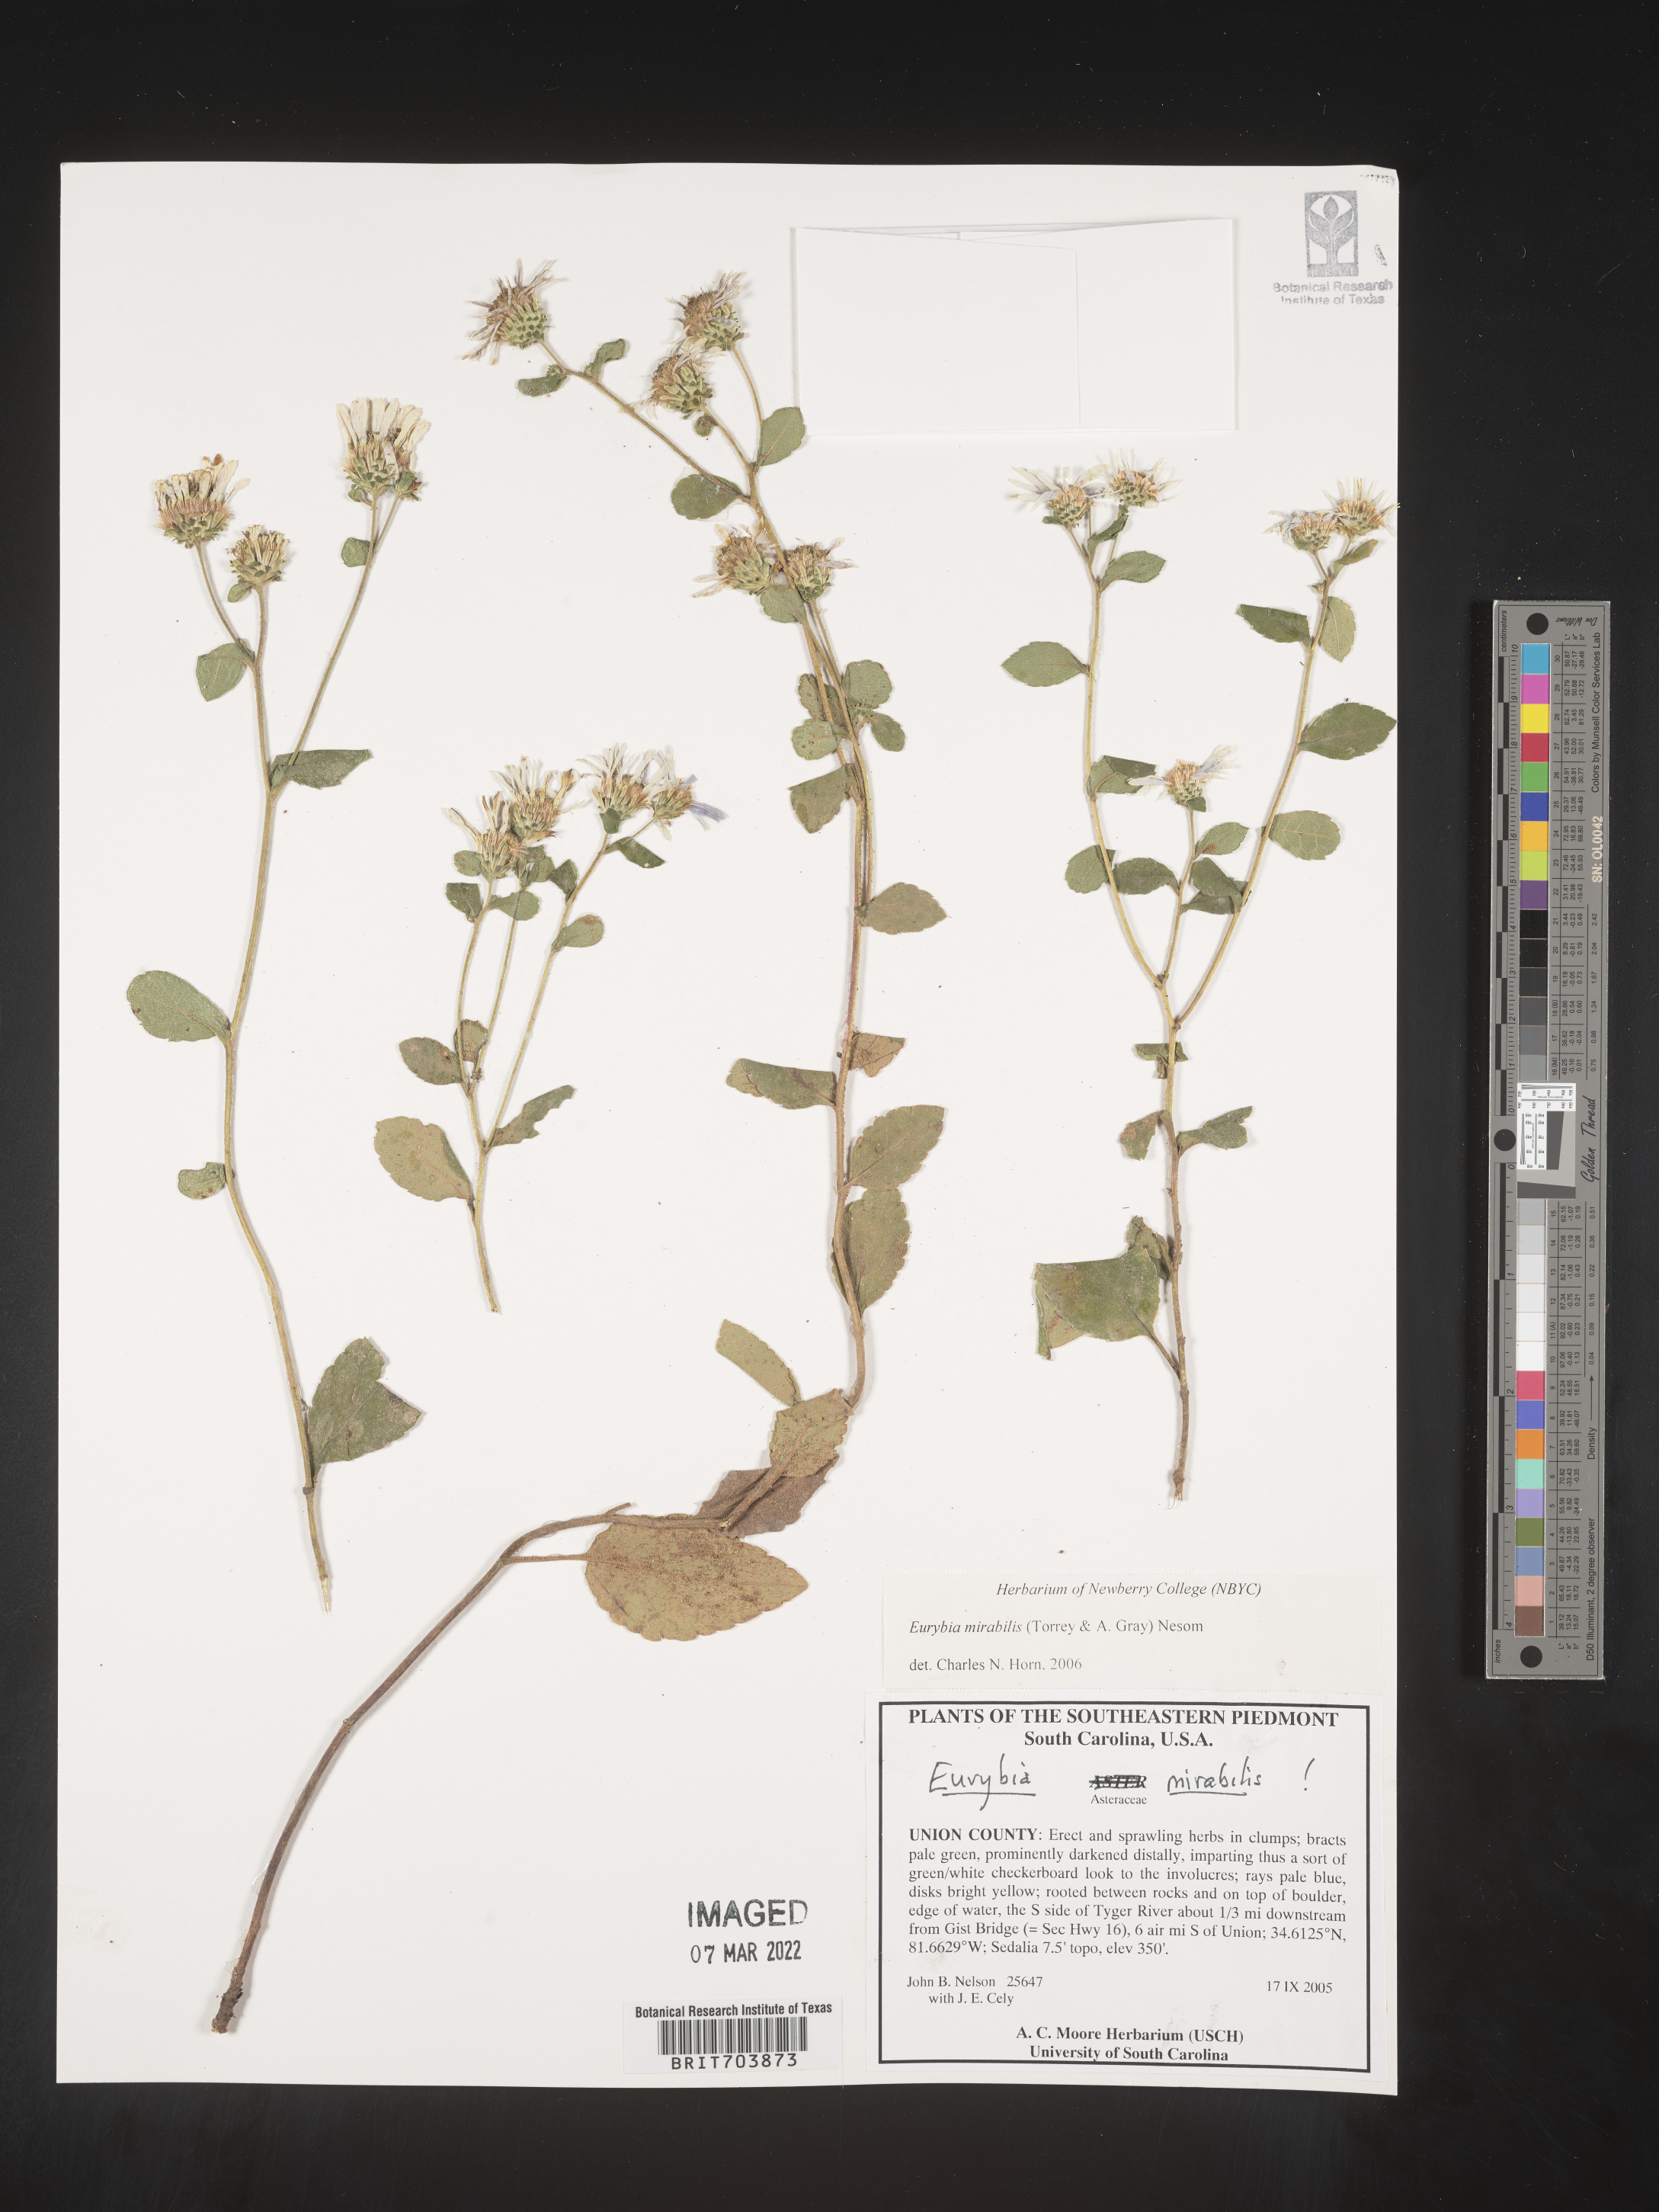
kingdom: Plantae
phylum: Tracheophyta
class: Magnoliopsida
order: Asterales
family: Asteraceae
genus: Eurybia
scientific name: Eurybia mirabilis
